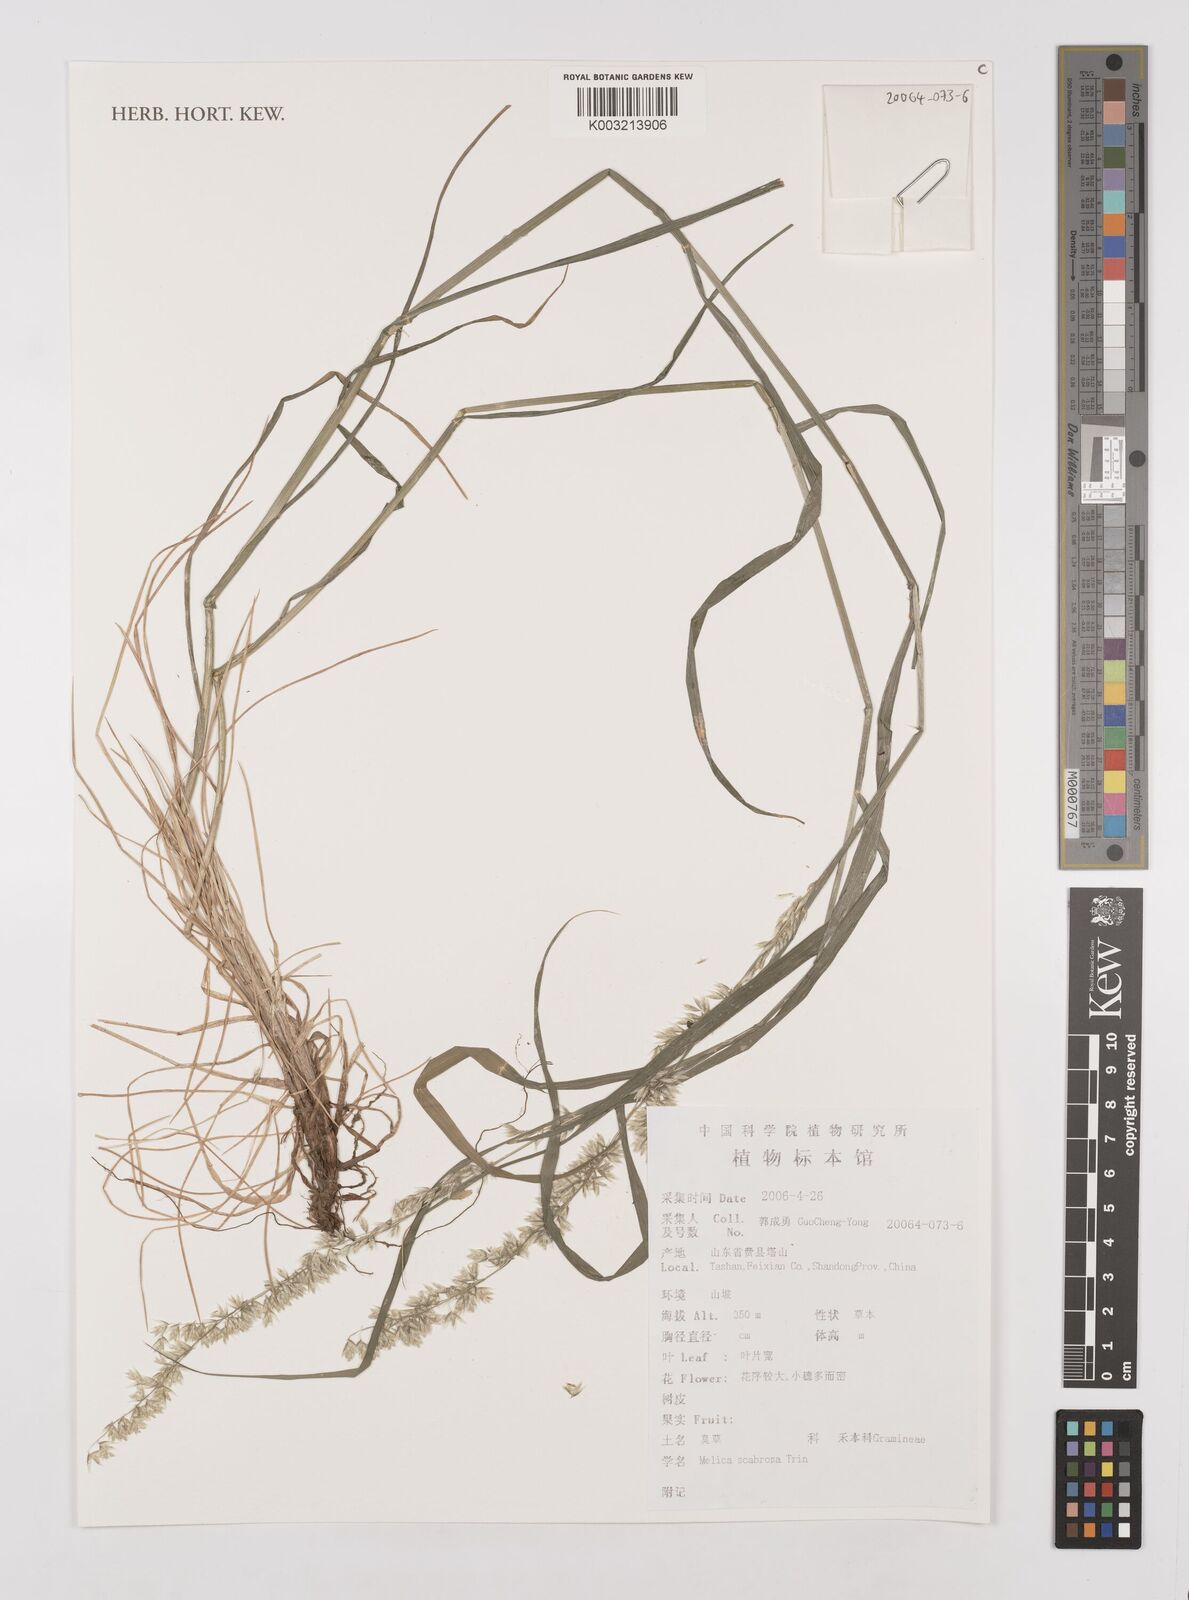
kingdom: Plantae
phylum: Tracheophyta
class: Liliopsida
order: Poales
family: Poaceae
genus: Melica
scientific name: Melica scabrosa
